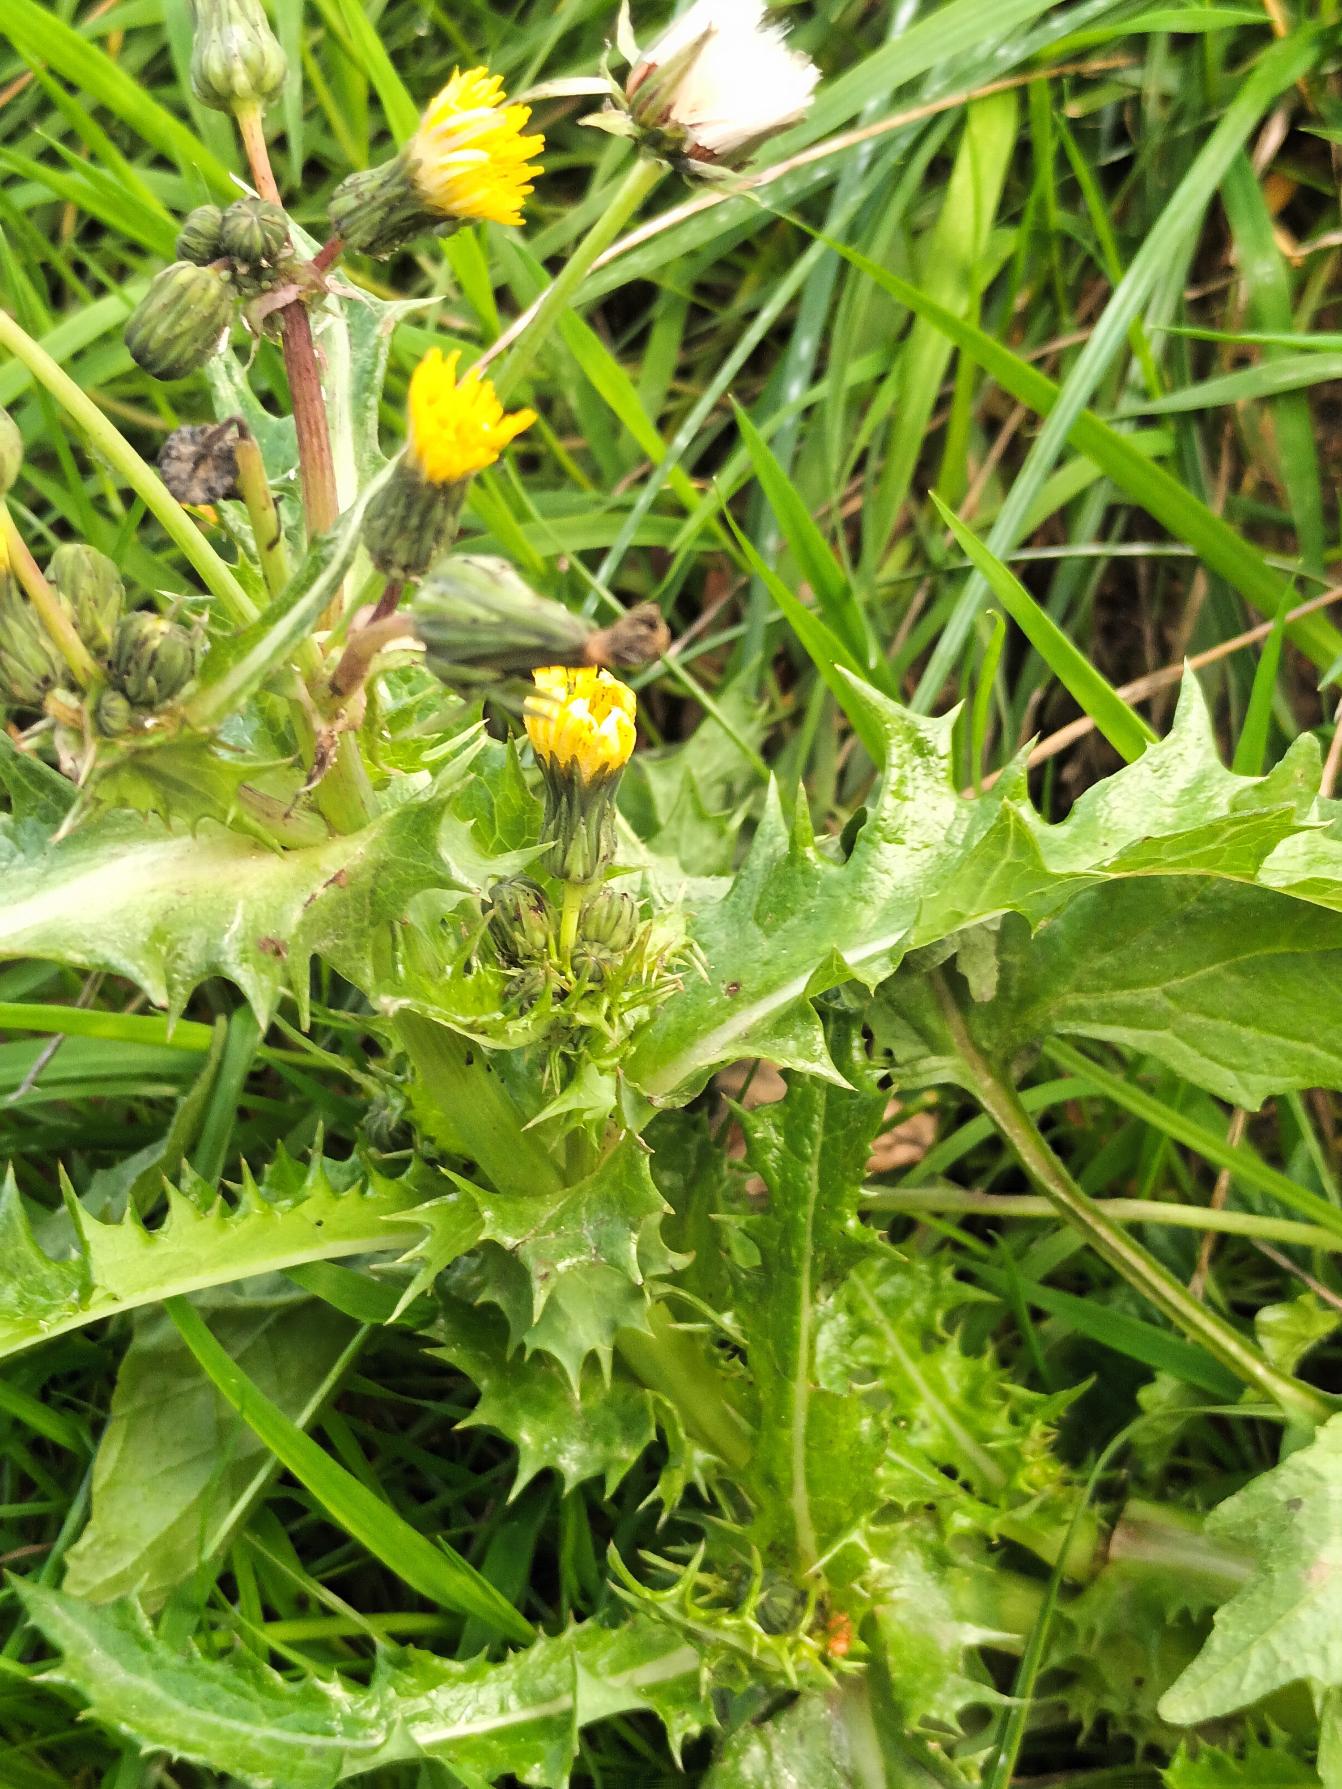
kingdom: Plantae
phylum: Tracheophyta
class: Magnoliopsida
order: Asterales
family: Asteraceae
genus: Sonchus
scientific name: Sonchus asper
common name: Ru svinemælk
